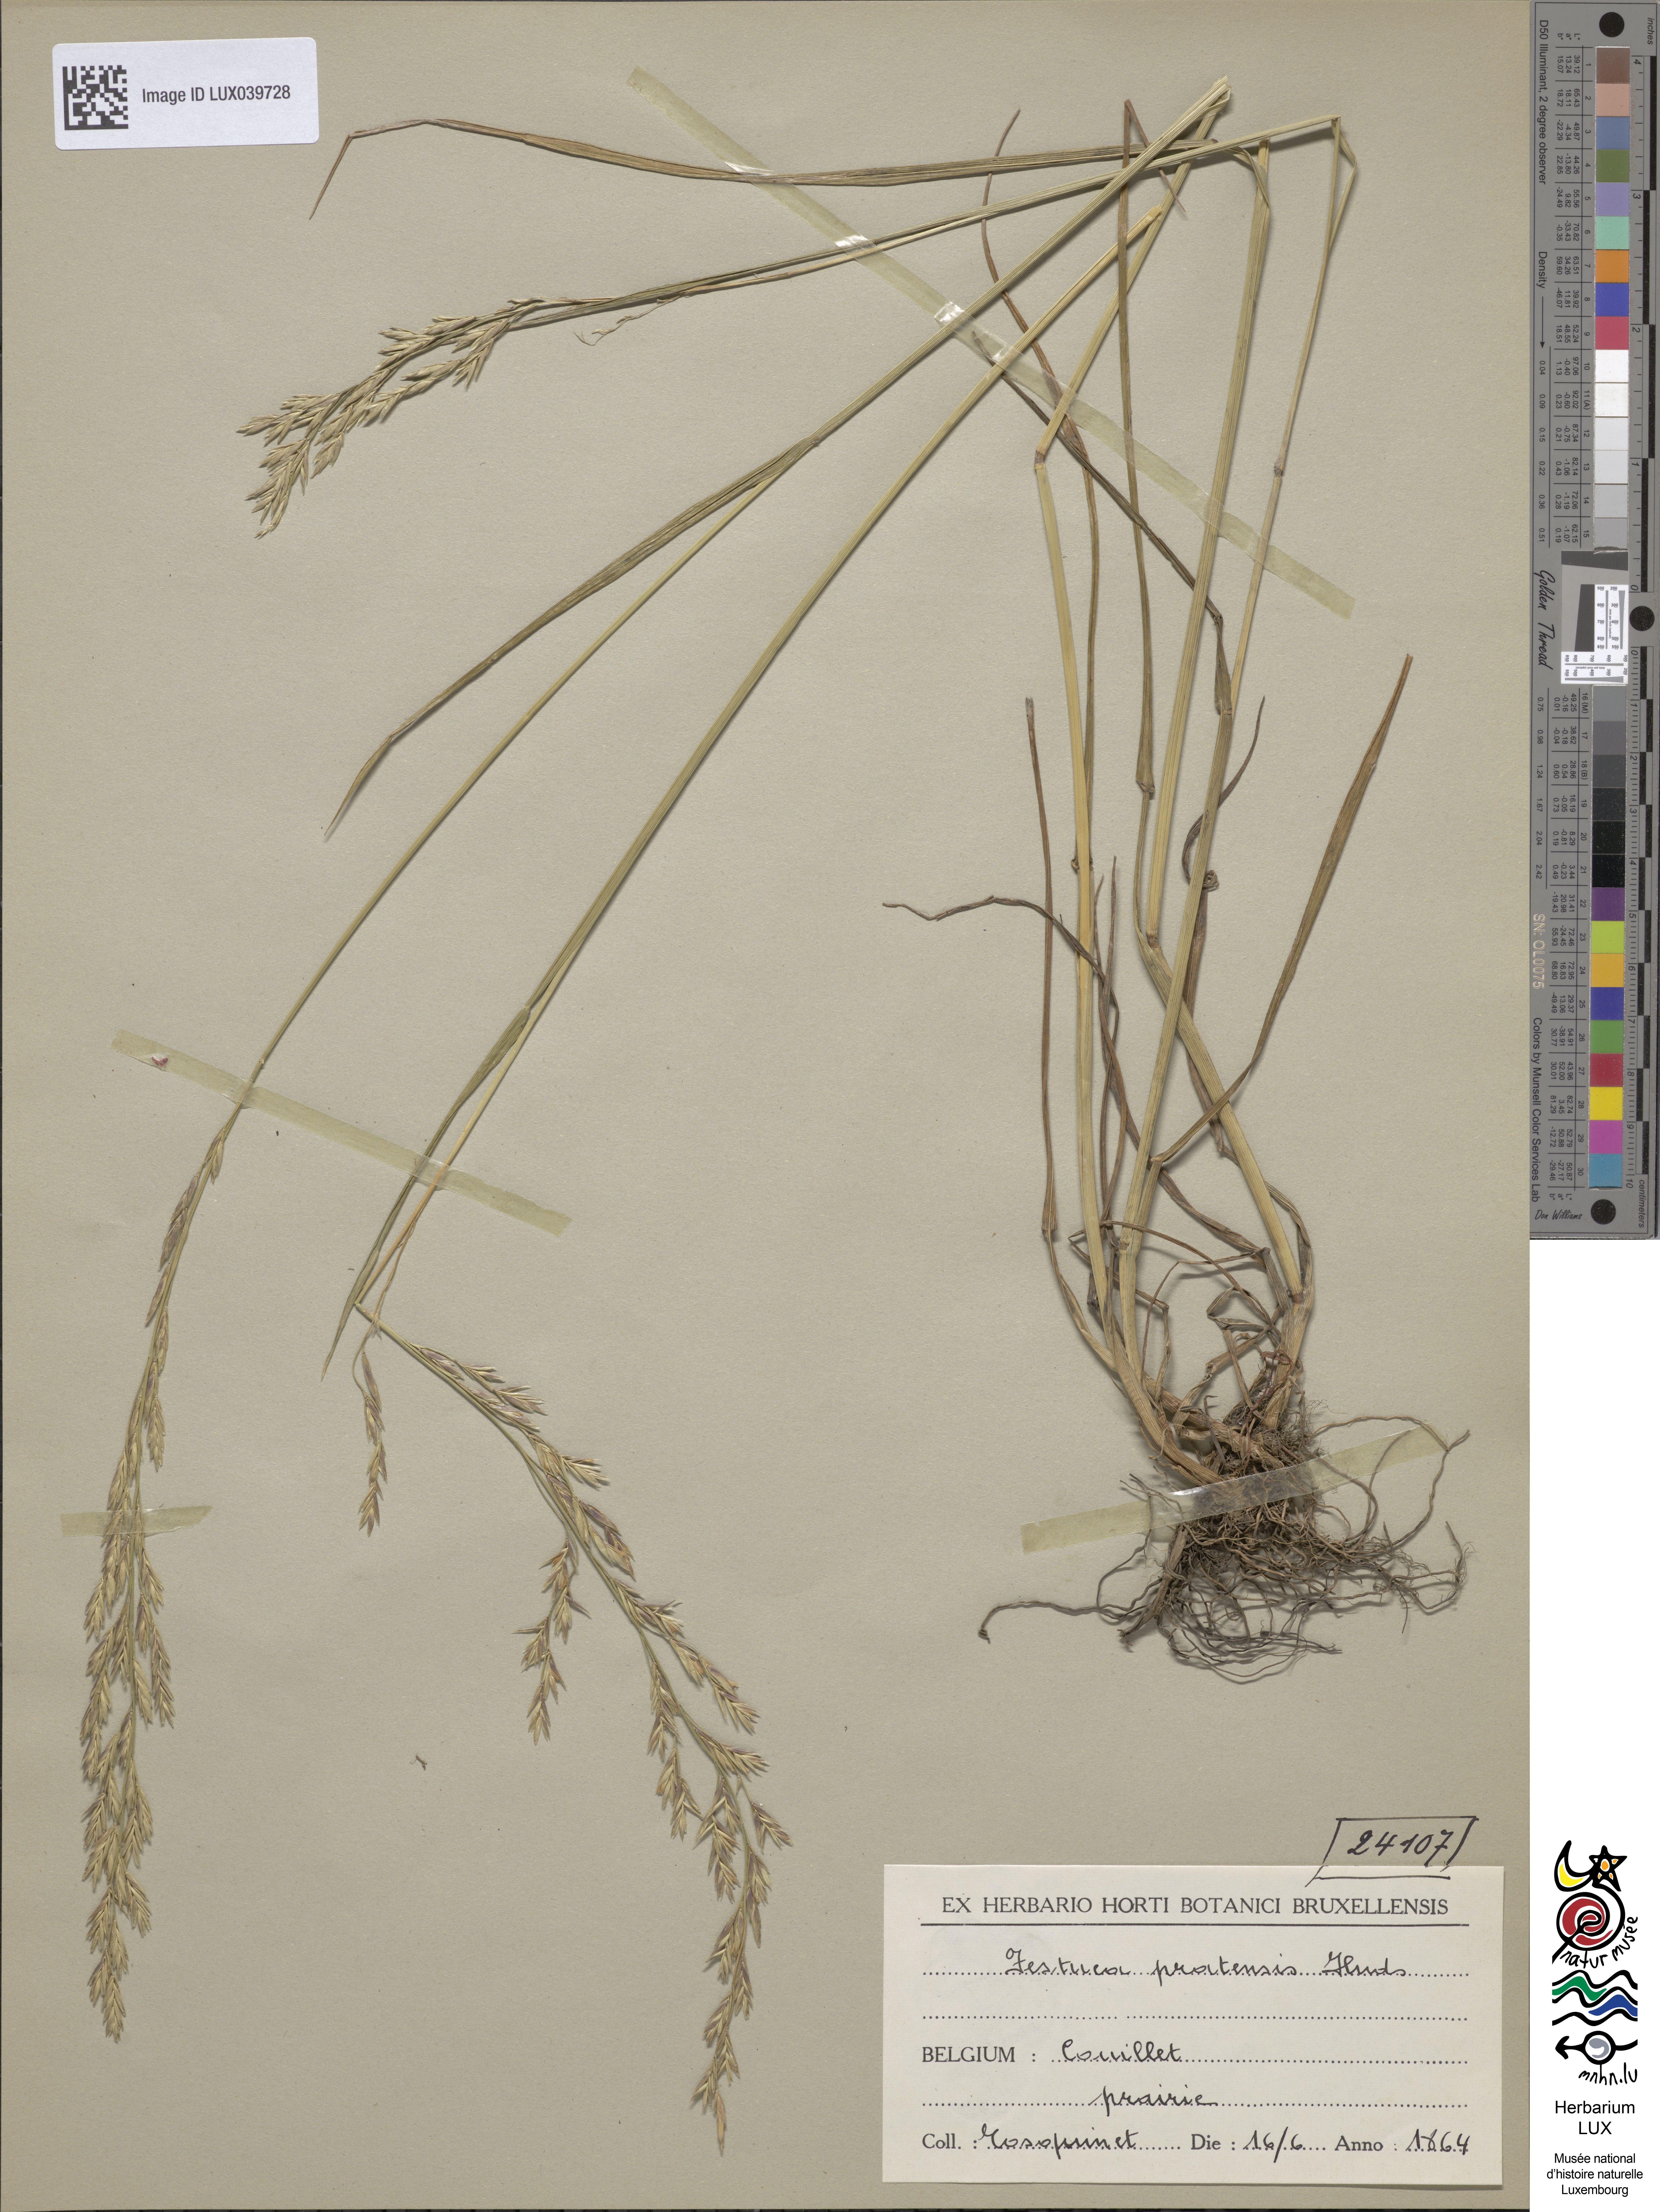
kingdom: Plantae
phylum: Tracheophyta
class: Liliopsida
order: Poales
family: Poaceae
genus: Lolium
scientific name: Lolium pratense
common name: Dover grass
